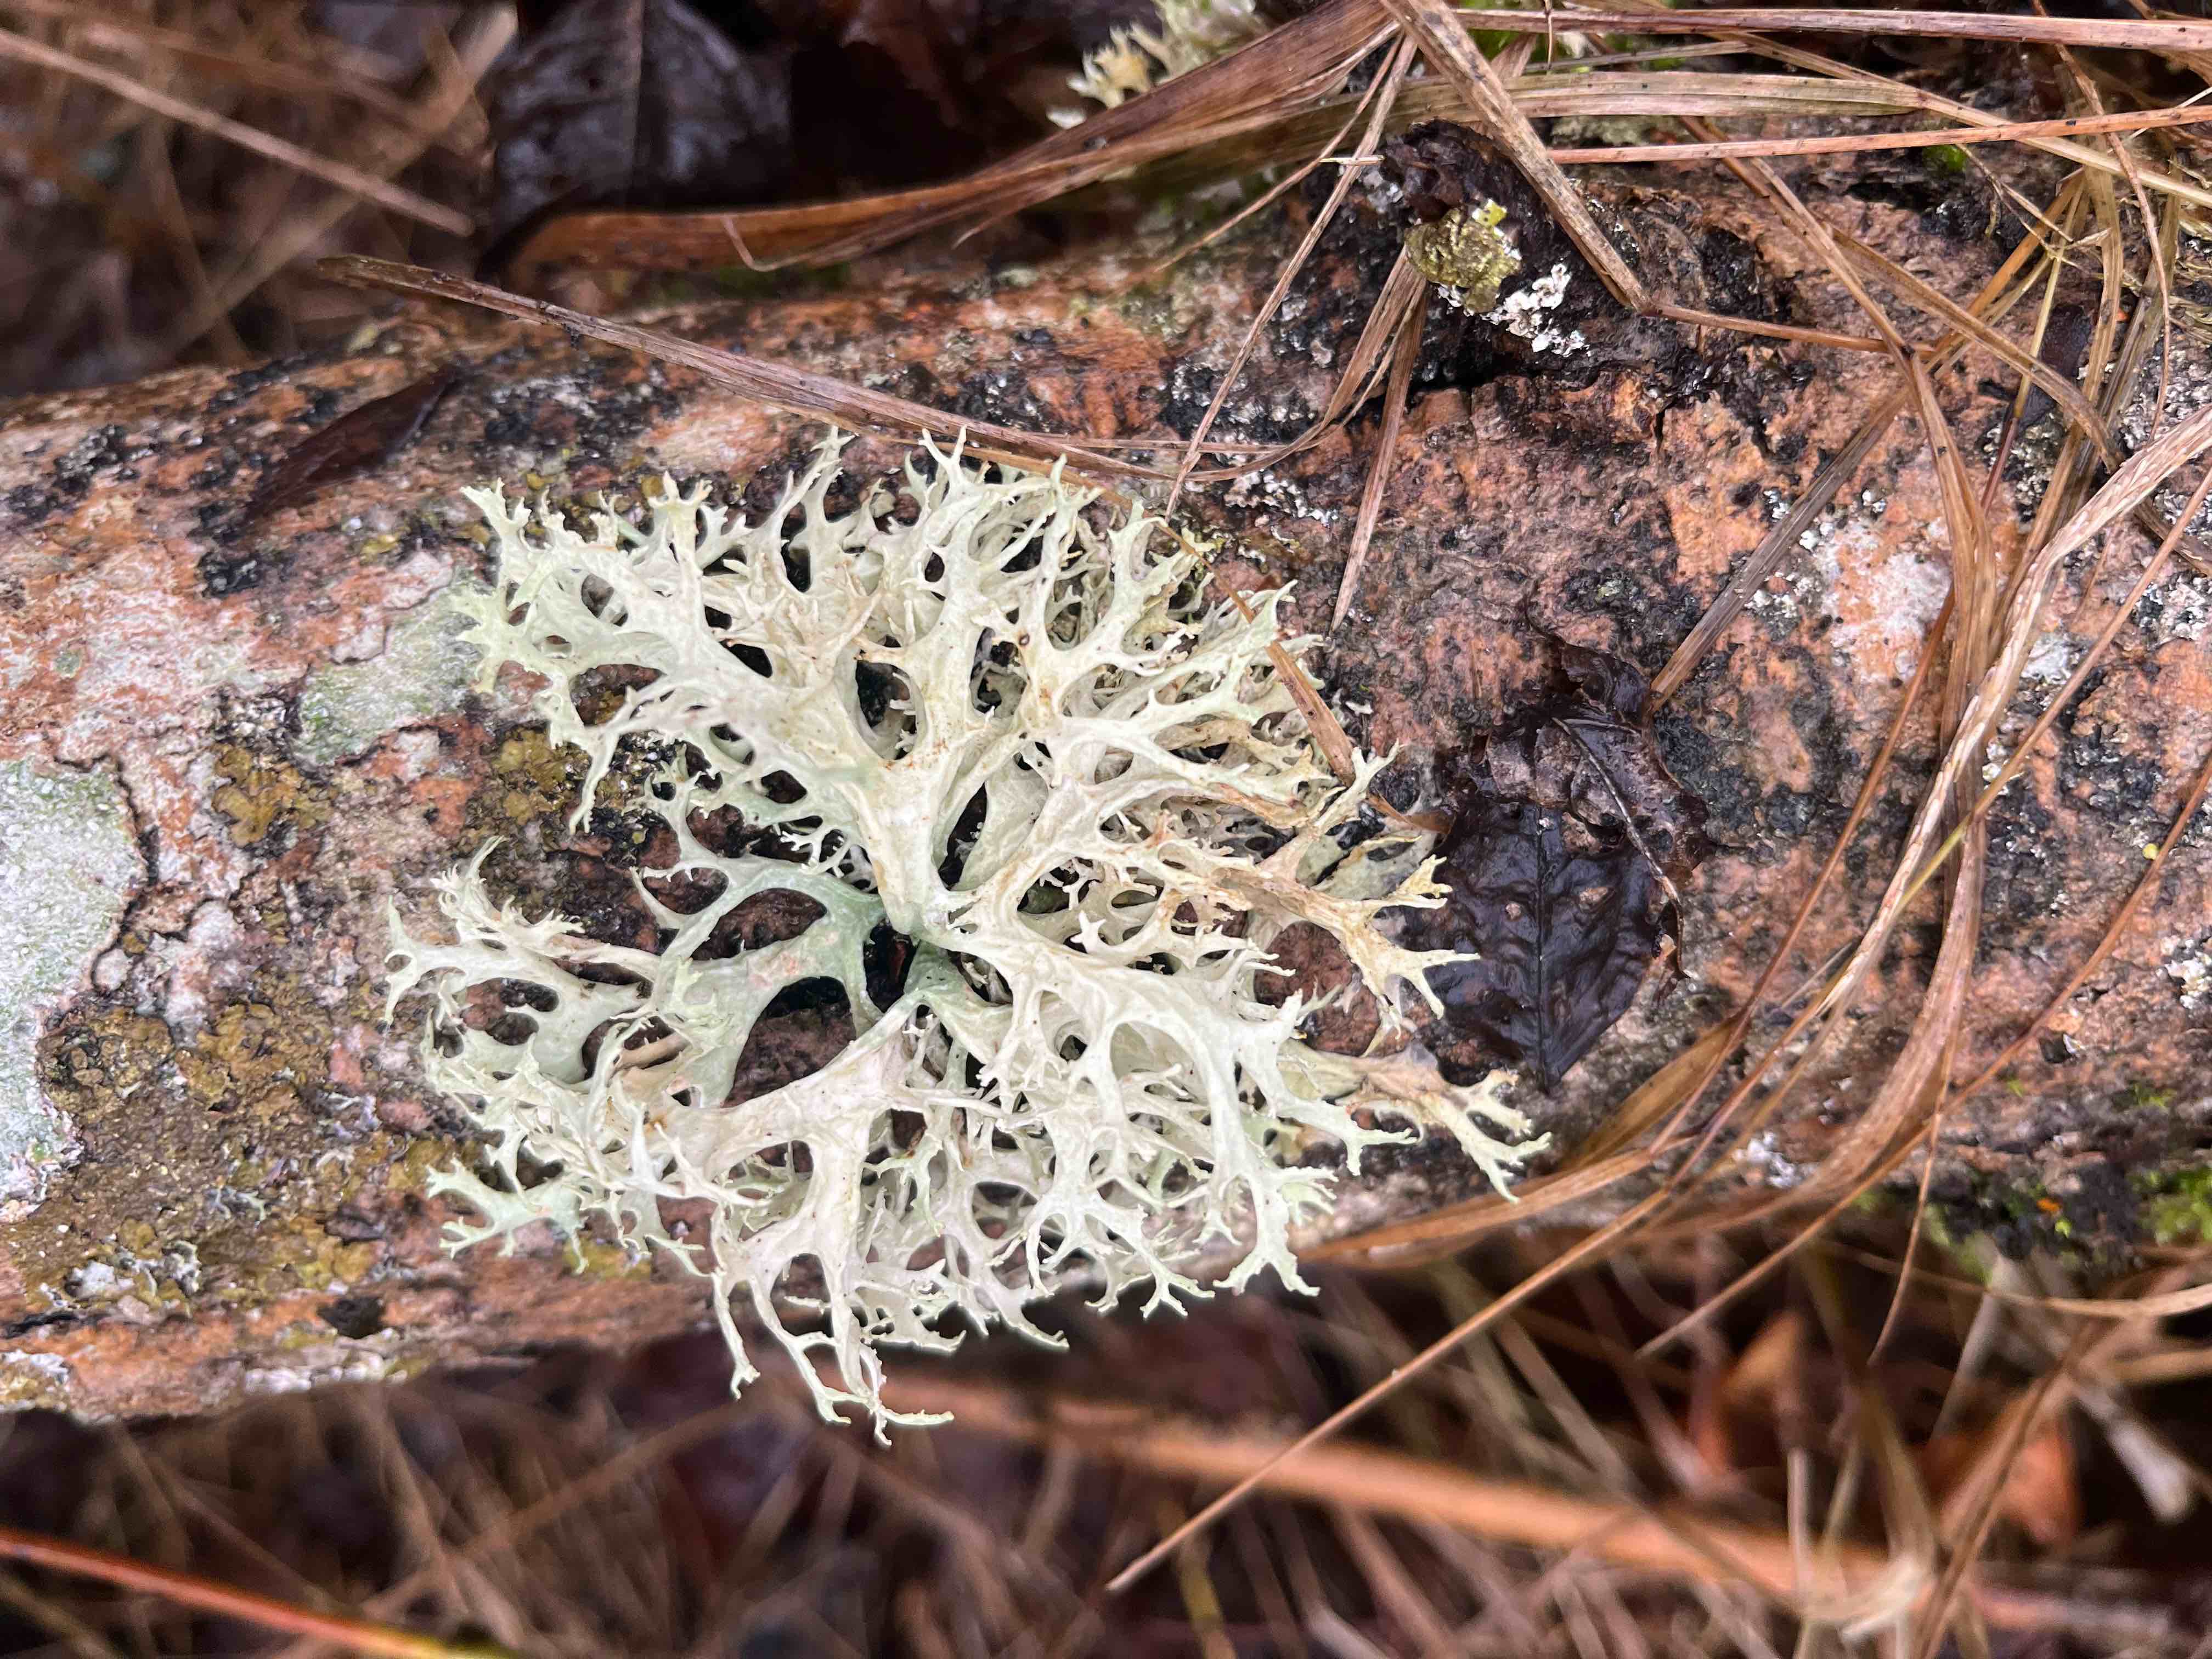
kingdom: Fungi
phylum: Ascomycota
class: Lecanoromycetes
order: Lecanorales
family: Parmeliaceae
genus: Evernia
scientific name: Evernia prunastri
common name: almindelig slåenlav
